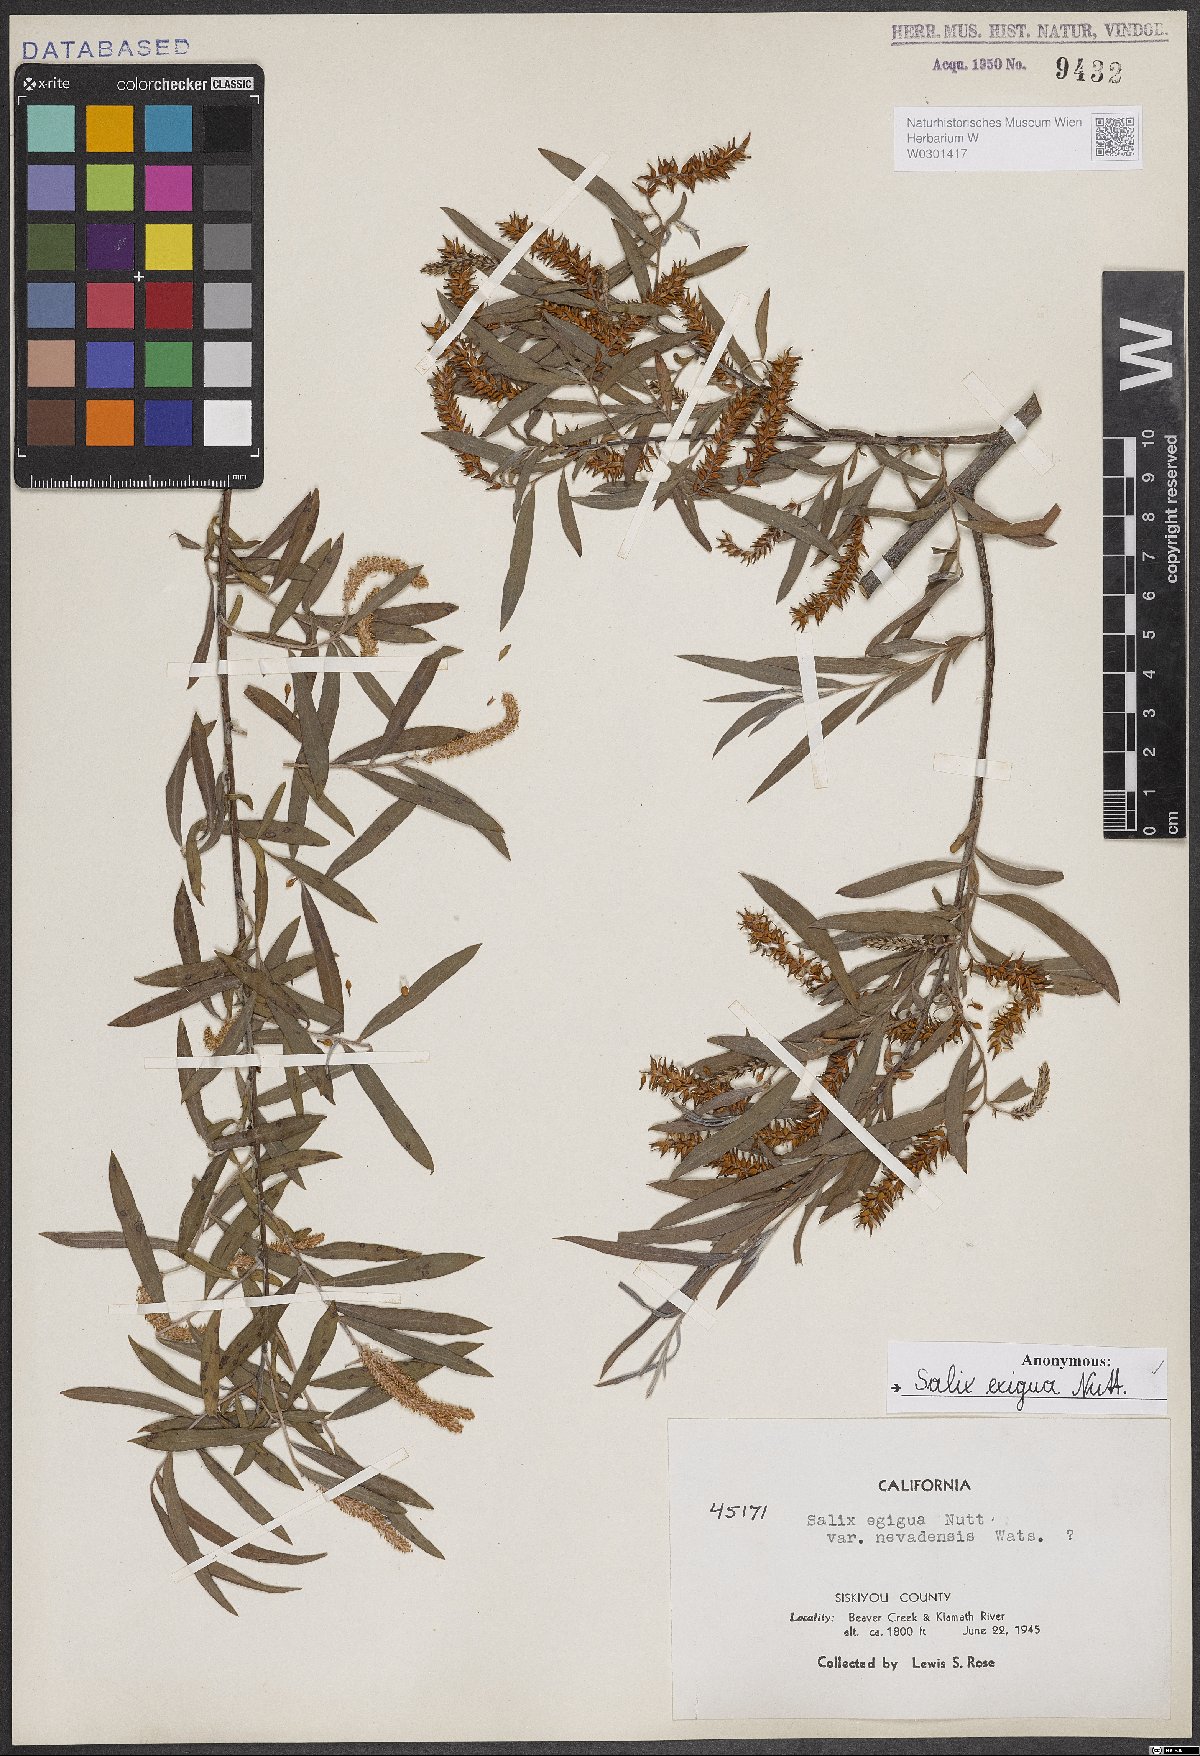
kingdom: Plantae
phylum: Tracheophyta
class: Magnoliopsida
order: Malpighiales
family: Salicaceae
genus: Salix
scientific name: Salix exigua
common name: Coyote willow
